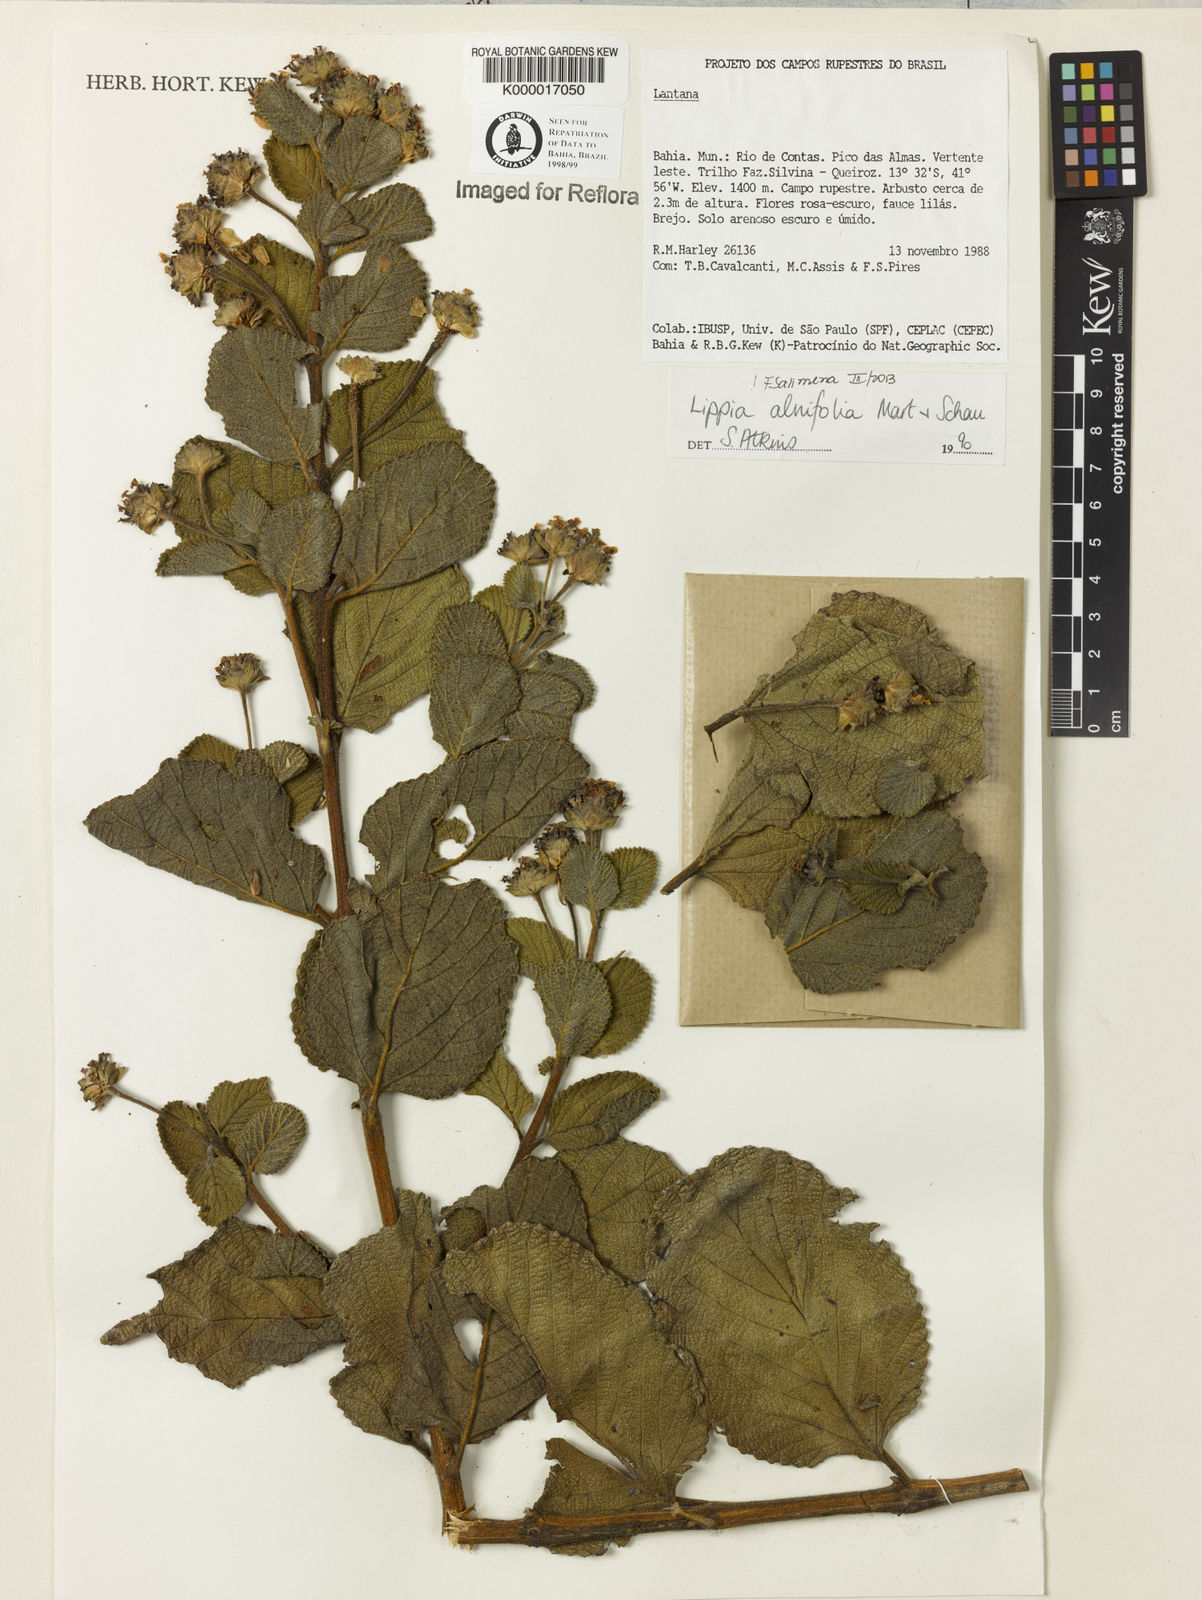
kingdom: Plantae
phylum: Tracheophyta
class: Magnoliopsida
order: Lamiales
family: Verbenaceae
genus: Lippia
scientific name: Lippia alnifolia
